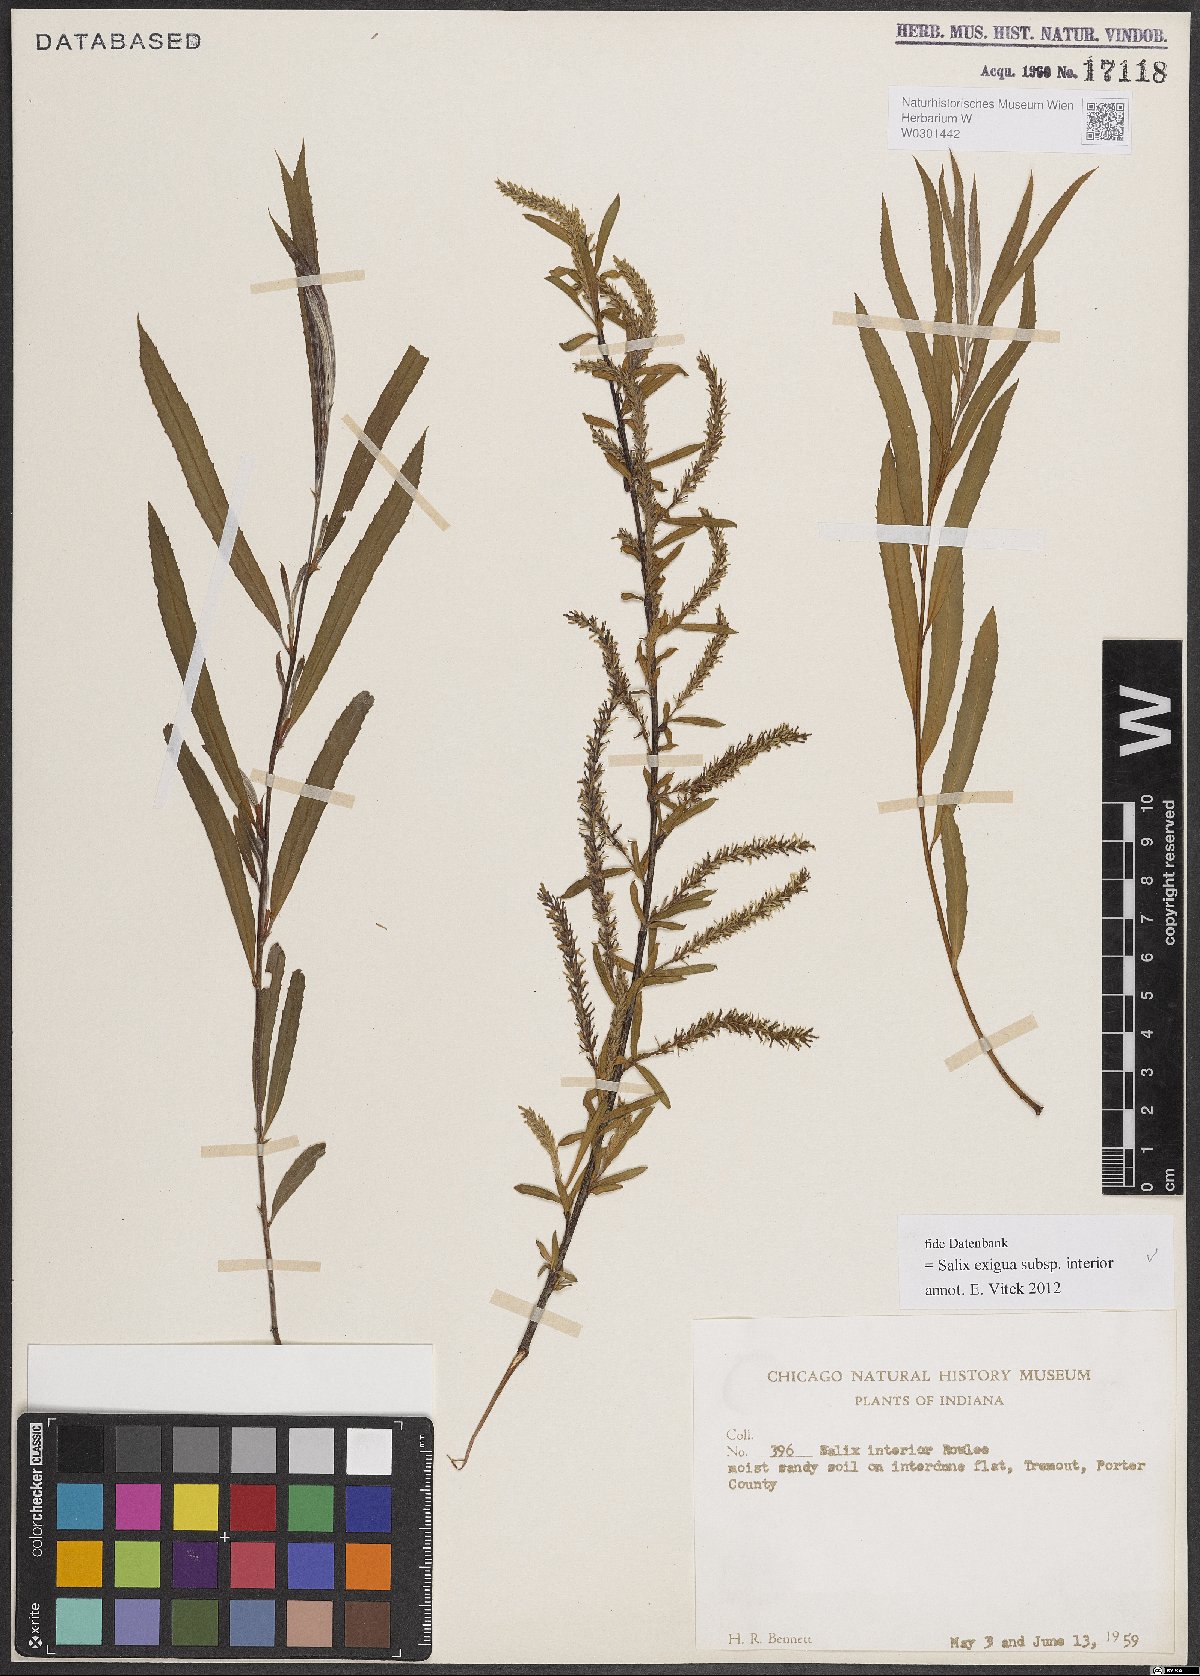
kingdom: Plantae
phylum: Tracheophyta
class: Magnoliopsida
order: Malpighiales
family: Salicaceae
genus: Salix
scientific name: Salix interior
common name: Sandbar willow
